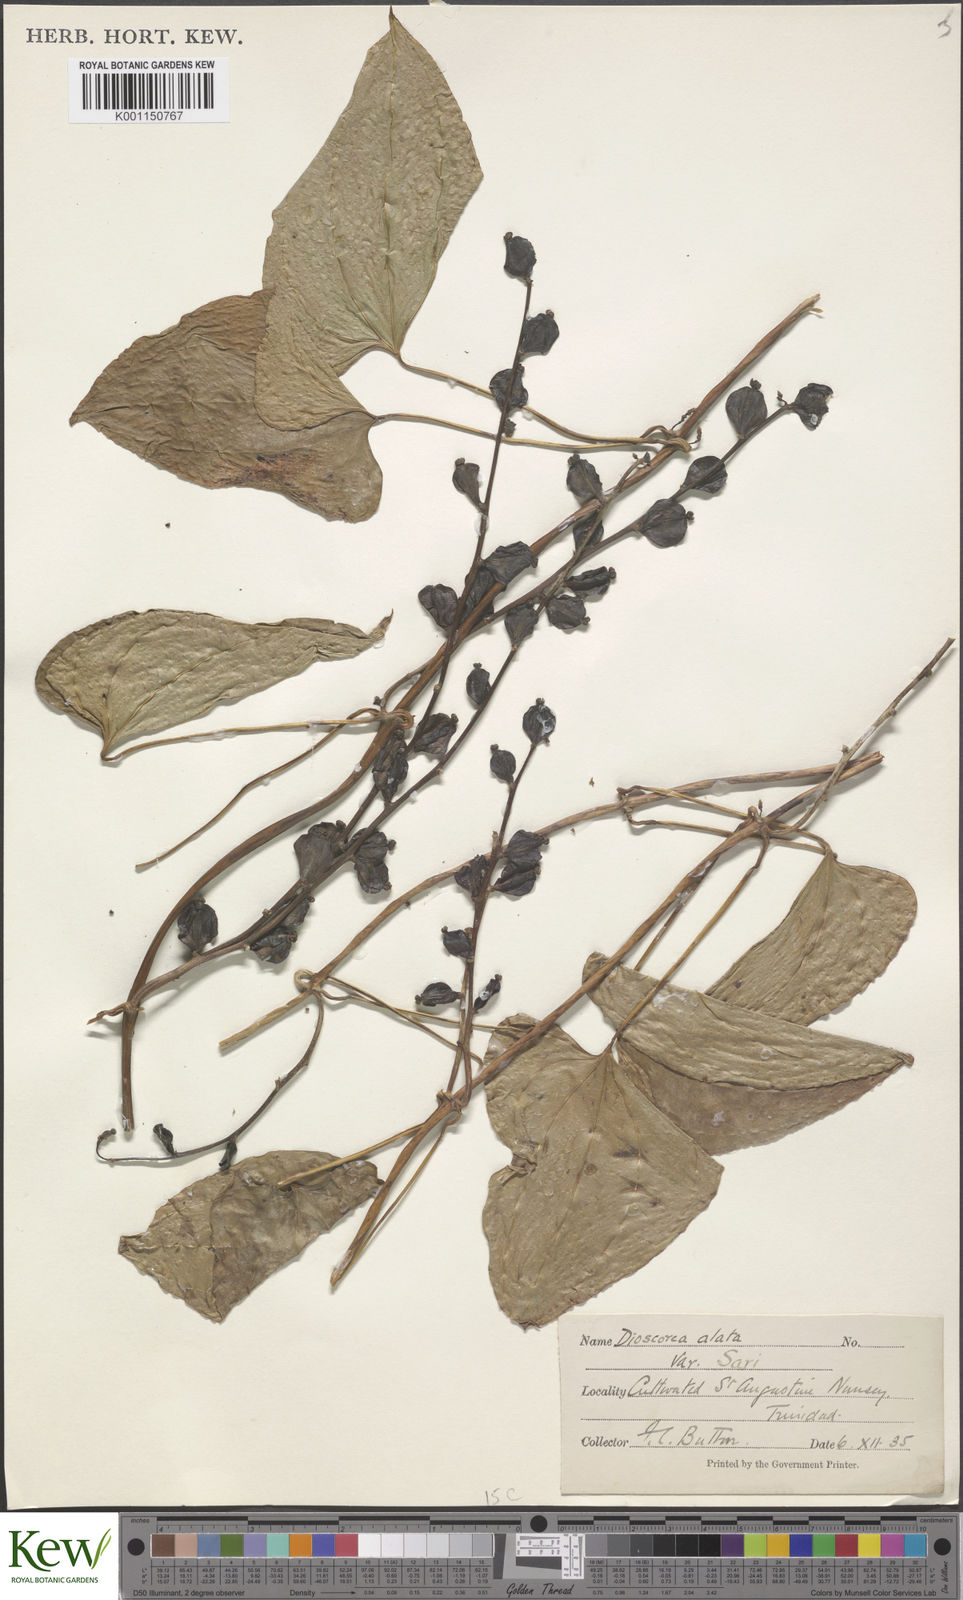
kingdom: Plantae
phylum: Tracheophyta
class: Liliopsida
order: Dioscoreales
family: Dioscoreaceae
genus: Dioscorea
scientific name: Dioscorea alata
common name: Water yam
